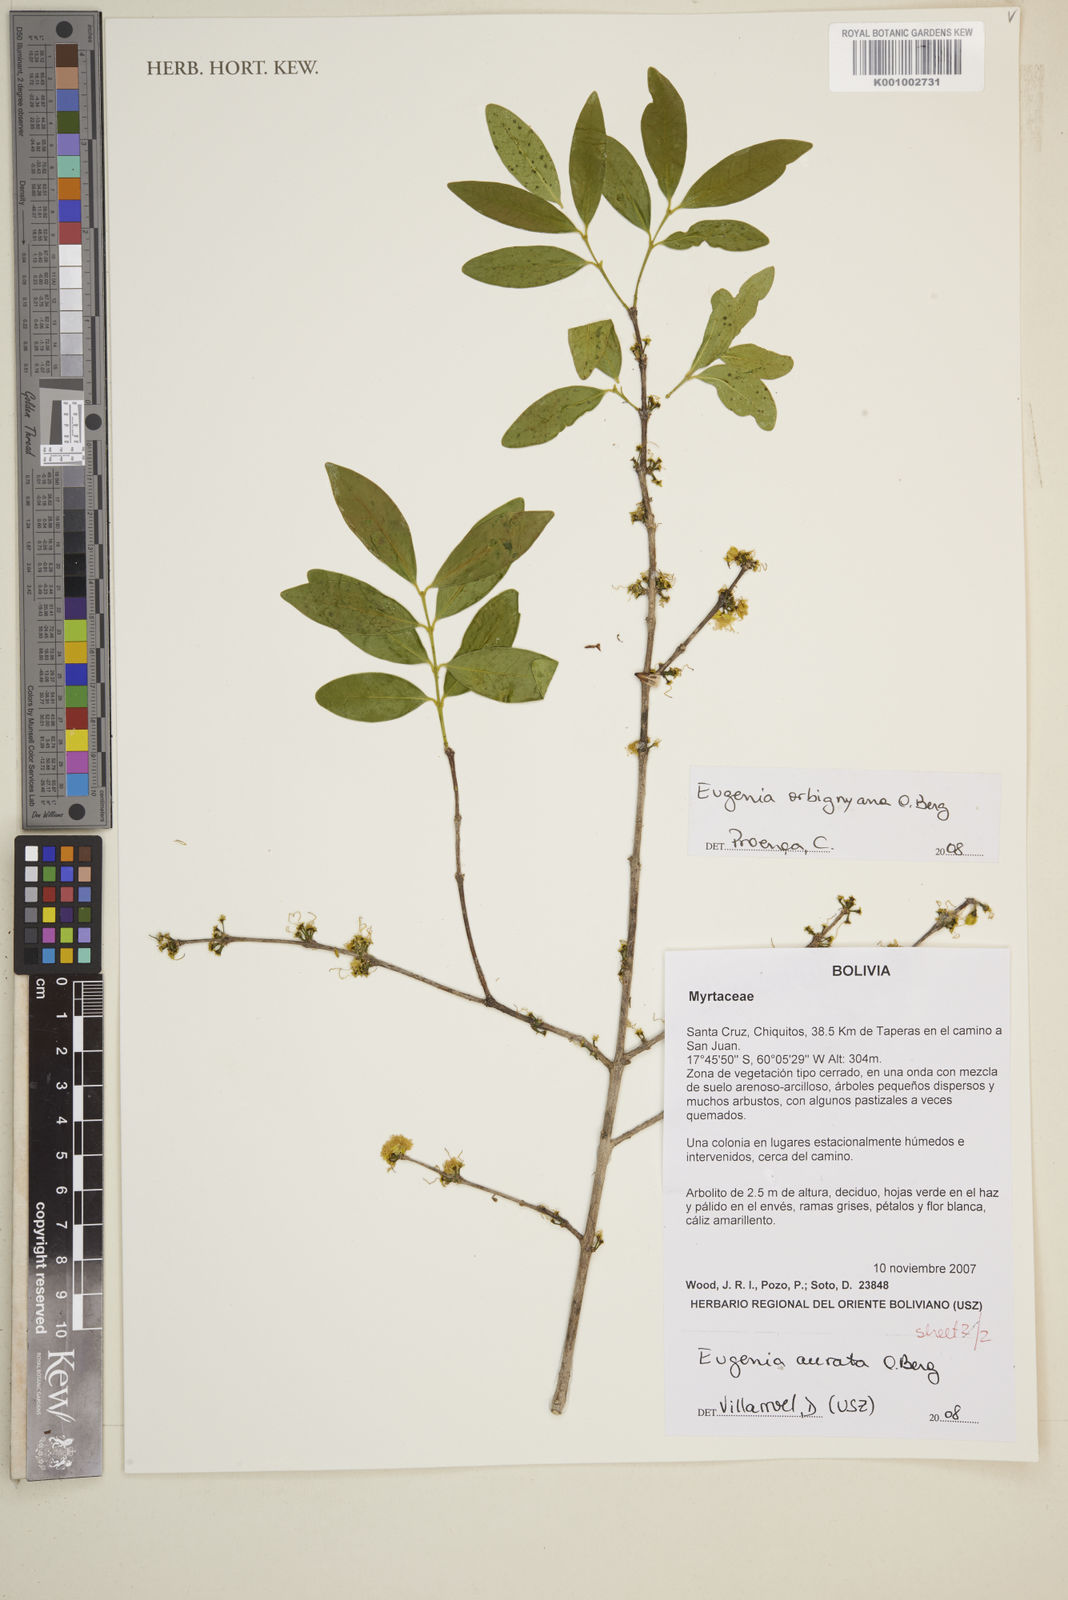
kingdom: Plantae
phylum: Tracheophyta
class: Magnoliopsida
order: Myrtales
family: Myrtaceae
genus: Eugenia
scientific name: Eugenia aurata
